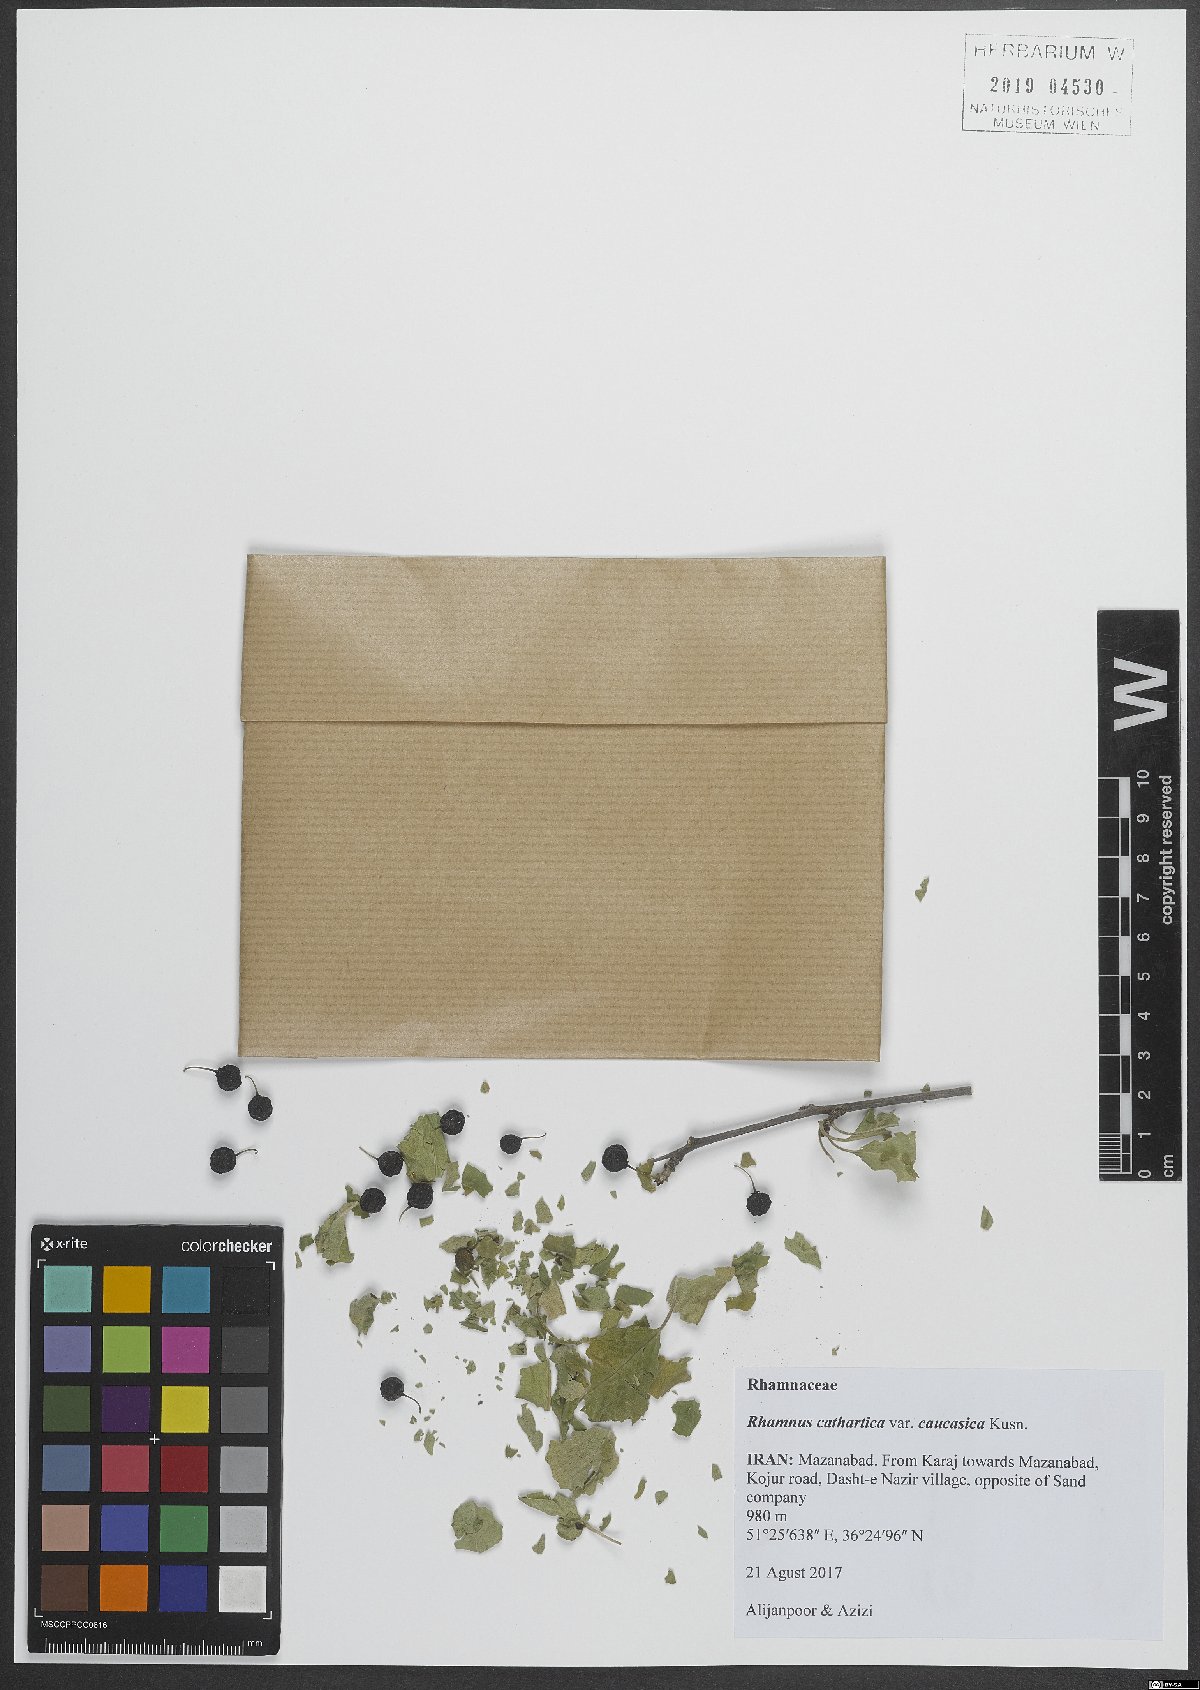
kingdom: Plantae
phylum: Tracheophyta
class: Magnoliopsida
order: Rosales
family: Rhamnaceae
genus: Rhamnus
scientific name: Rhamnus cathartica
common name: Common buckthorn
